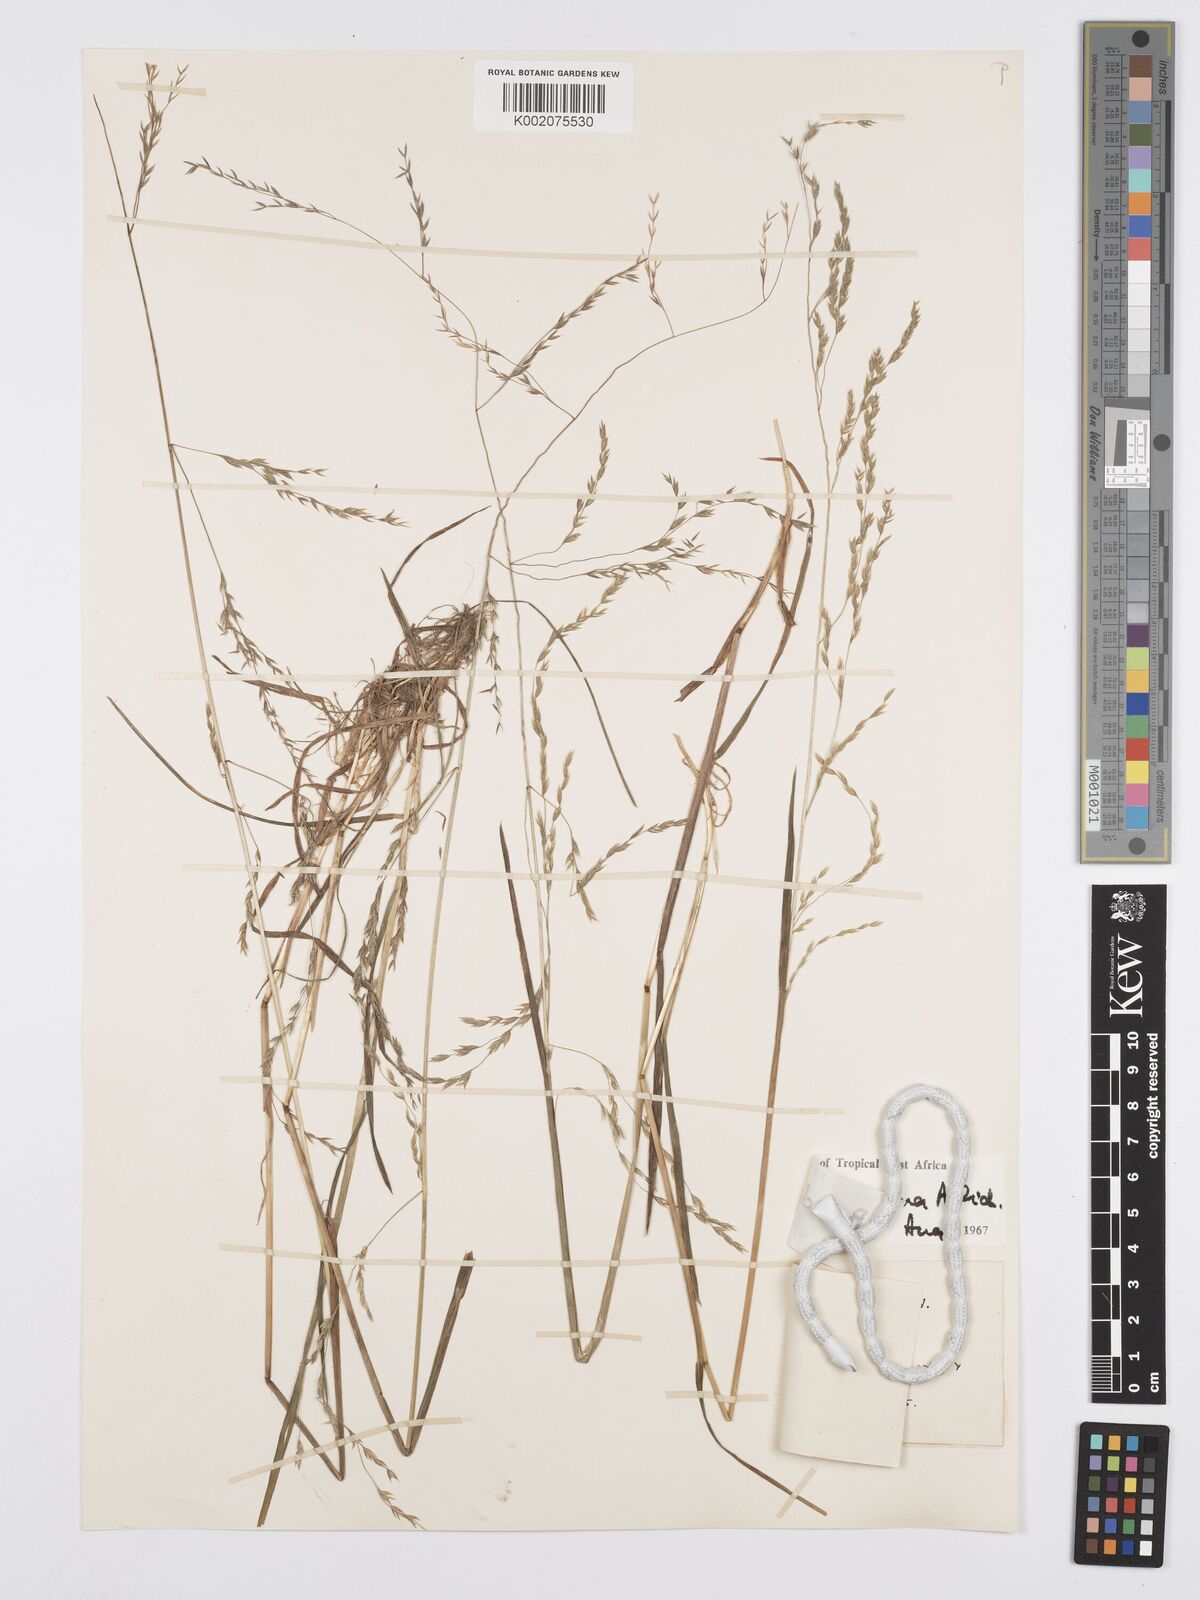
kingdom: Plantae
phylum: Tracheophyta
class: Liliopsida
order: Poales
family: Poaceae
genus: Poa
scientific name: Poa schimperiana
